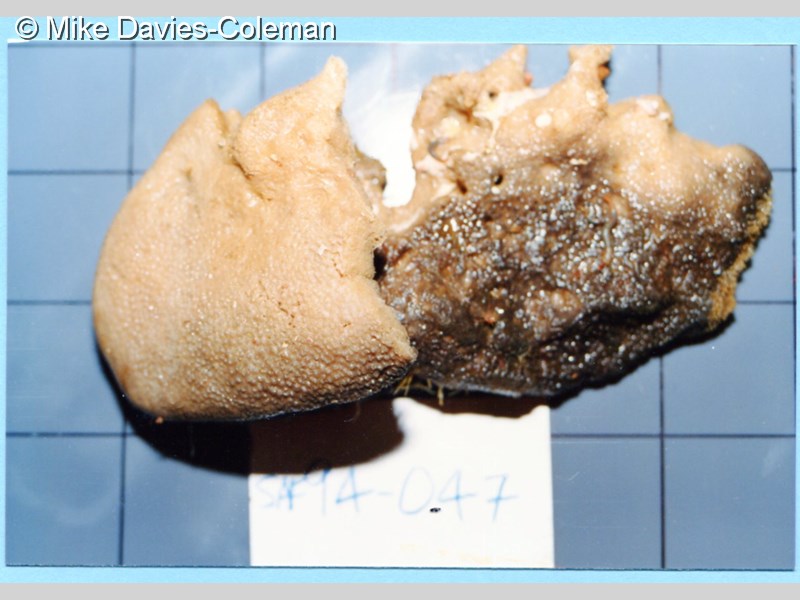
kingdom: Animalia
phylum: Porifera
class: Demospongiae
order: Dictyoceratida
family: Irciniidae
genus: Psammocinia
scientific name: Psammocinia compacta
